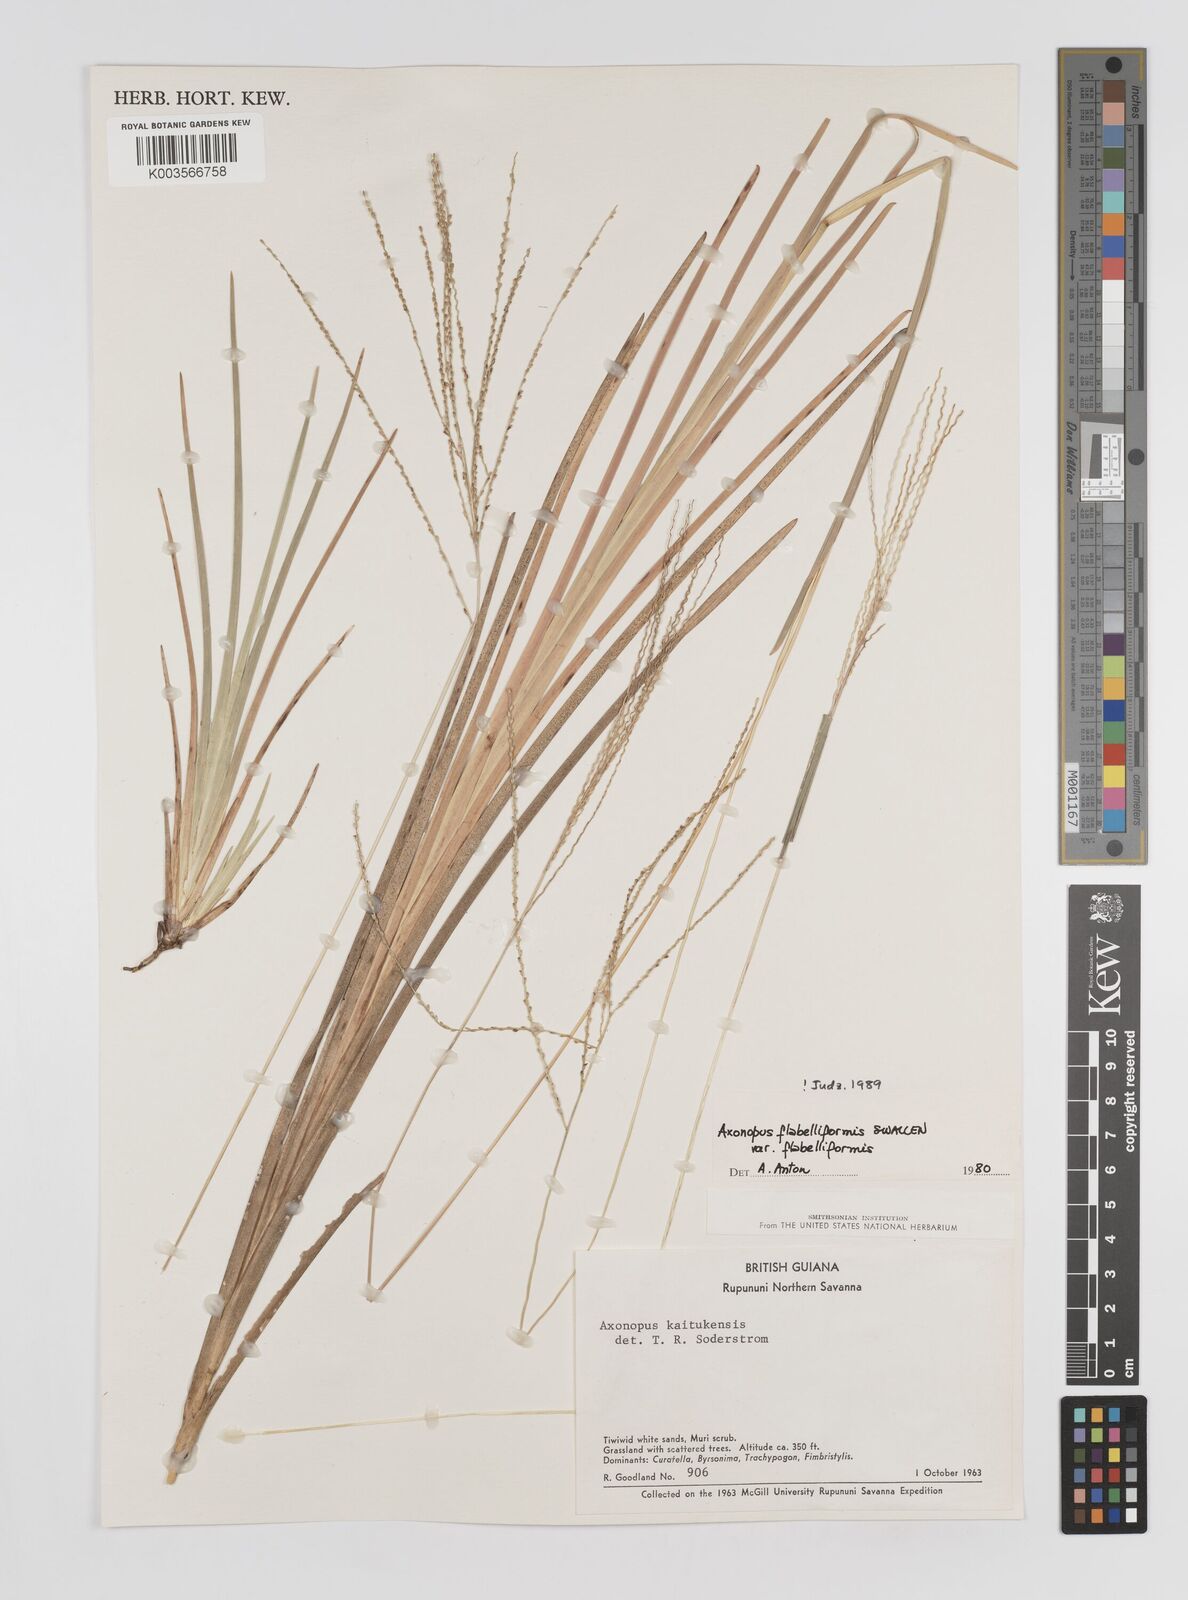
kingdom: Plantae
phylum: Tracheophyta
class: Liliopsida
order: Poales
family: Poaceae
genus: Axonopus
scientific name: Axonopus flabelliformis
